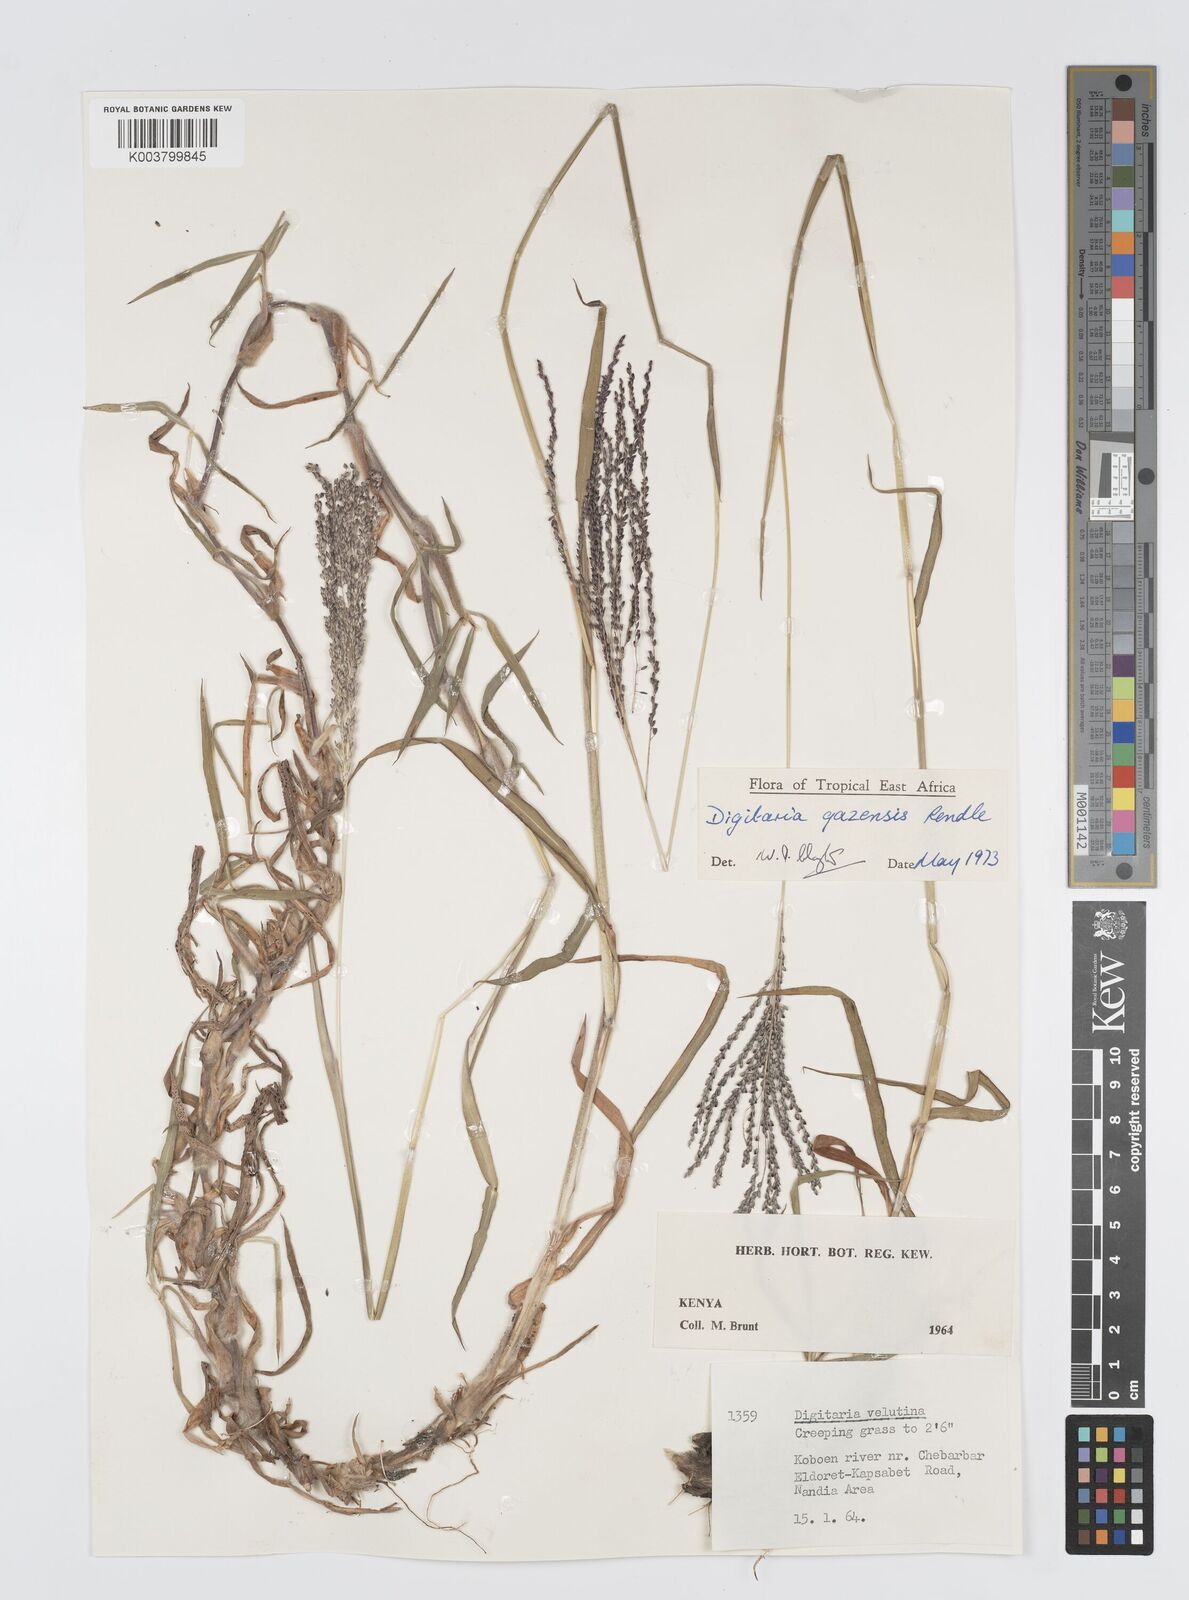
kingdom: Plantae
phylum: Tracheophyta
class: Liliopsida
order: Poales
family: Poaceae
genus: Digitaria
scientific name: Digitaria gazensis
